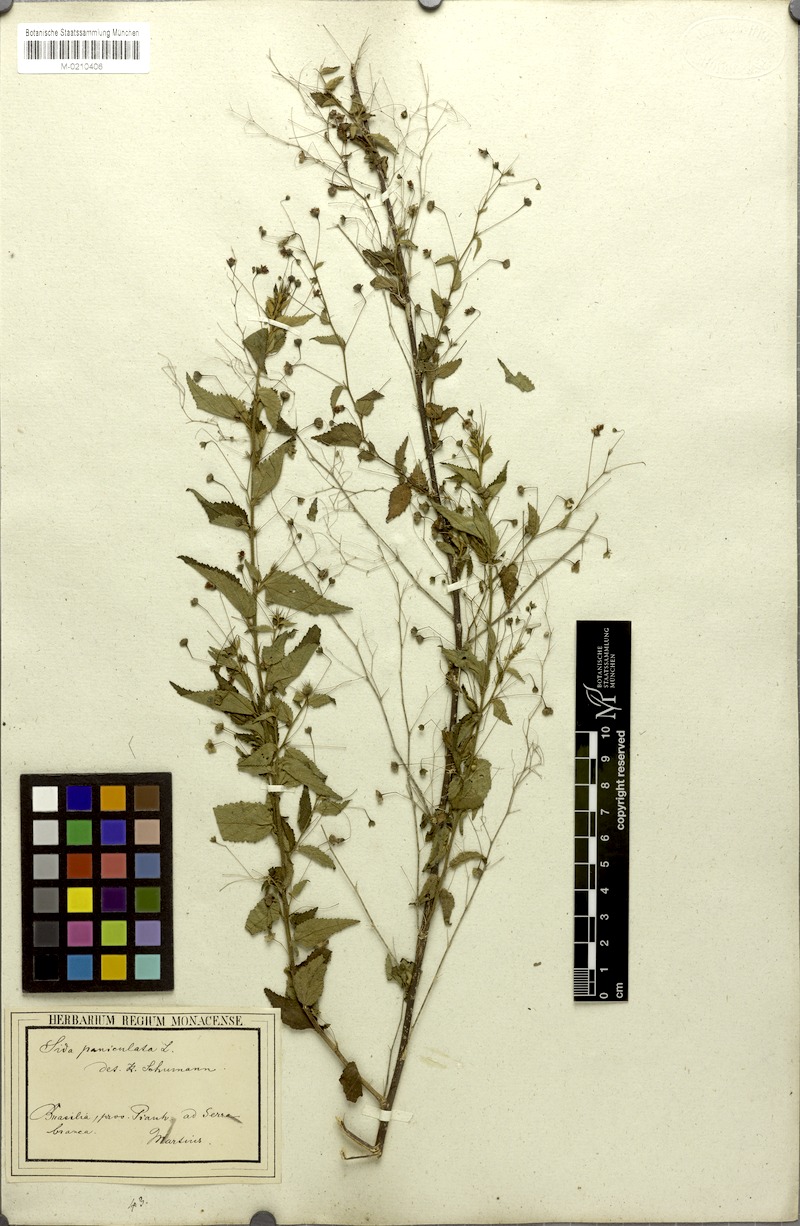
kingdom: Plantae
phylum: Tracheophyta
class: Magnoliopsida
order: Malvales
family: Malvaceae
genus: Sidastrum
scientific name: Sidastrum paniculatum
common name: Panicled sandmallow
